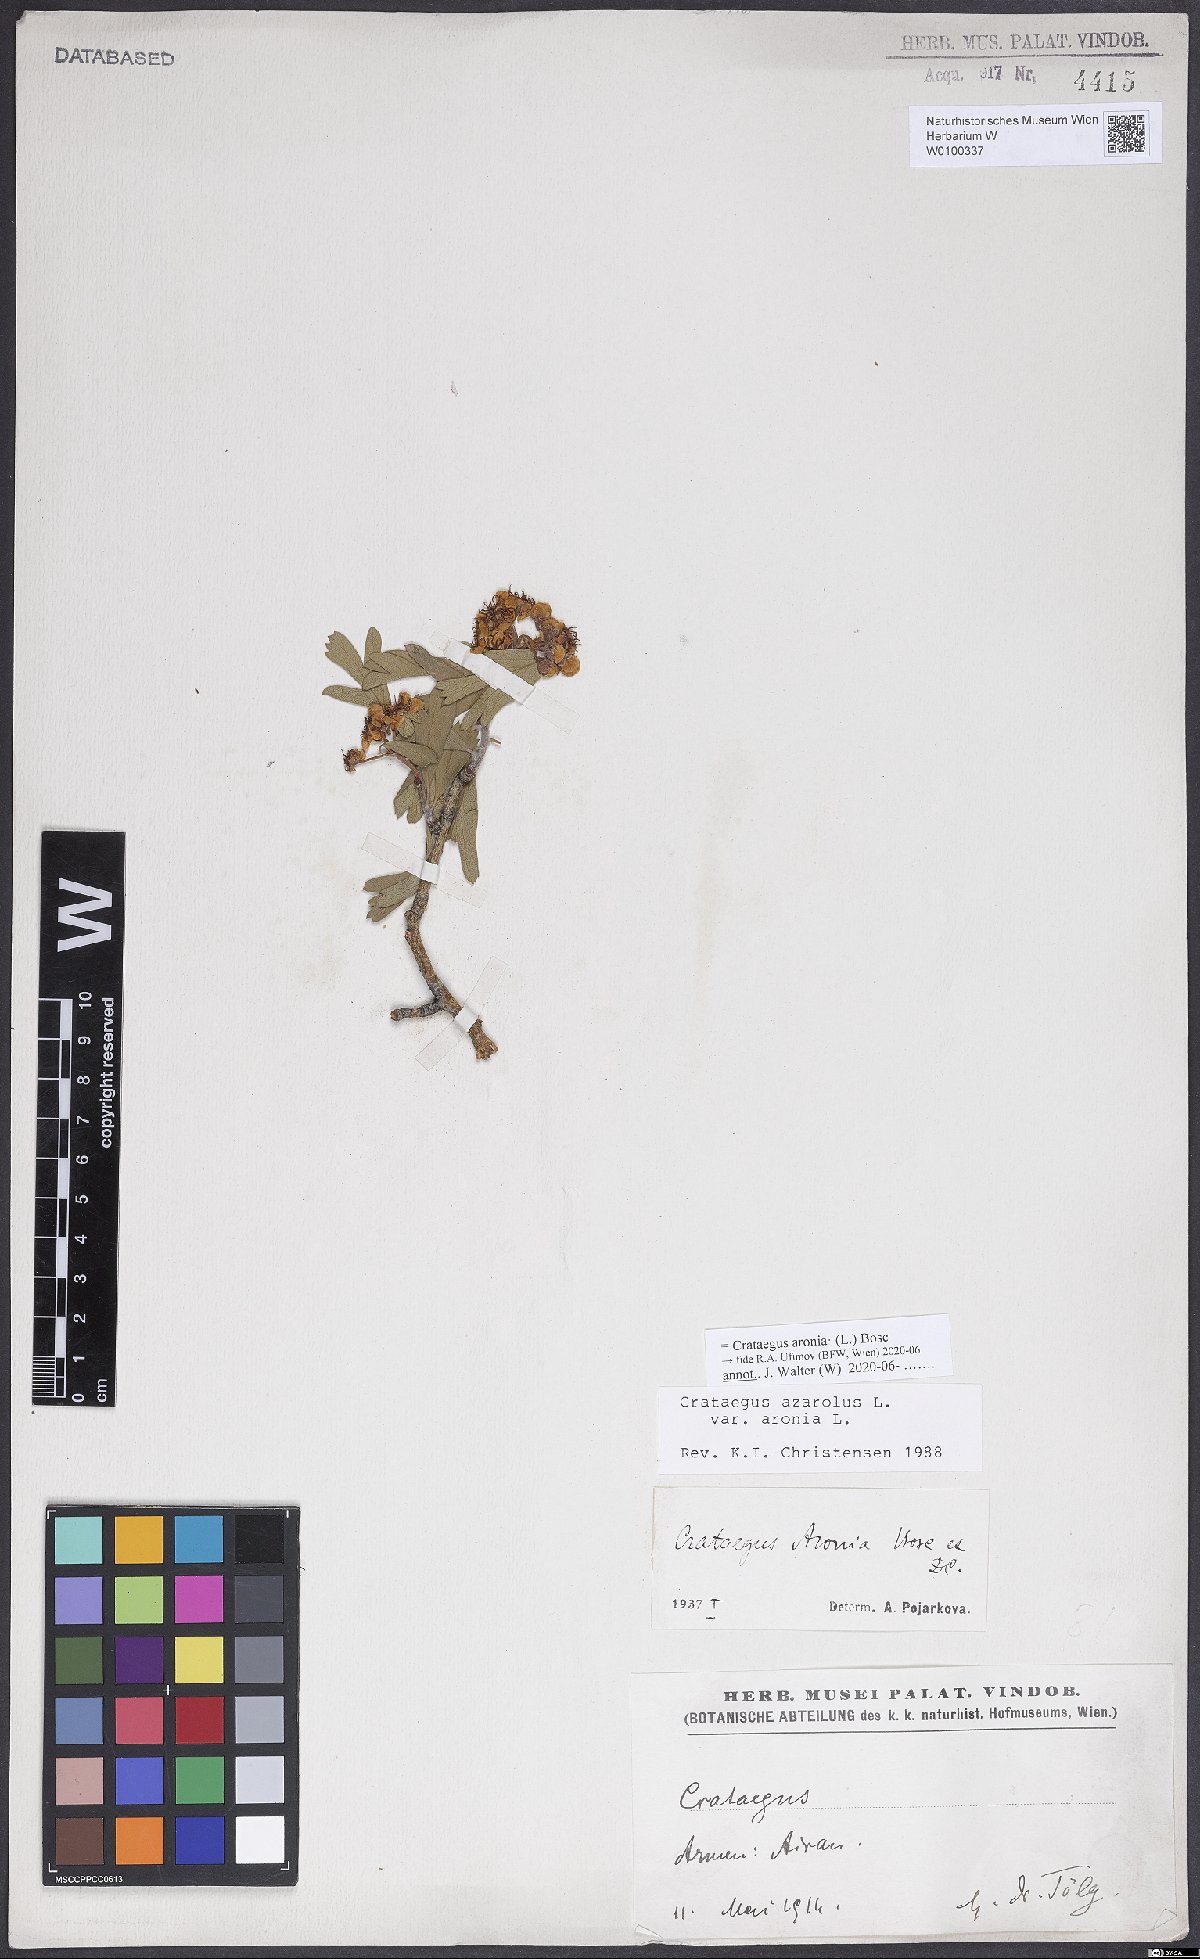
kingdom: Plantae
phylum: Tracheophyta
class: Magnoliopsida
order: Rosales
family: Rosaceae
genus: Crataegus
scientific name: Crataegus azarolus
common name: Azarole
